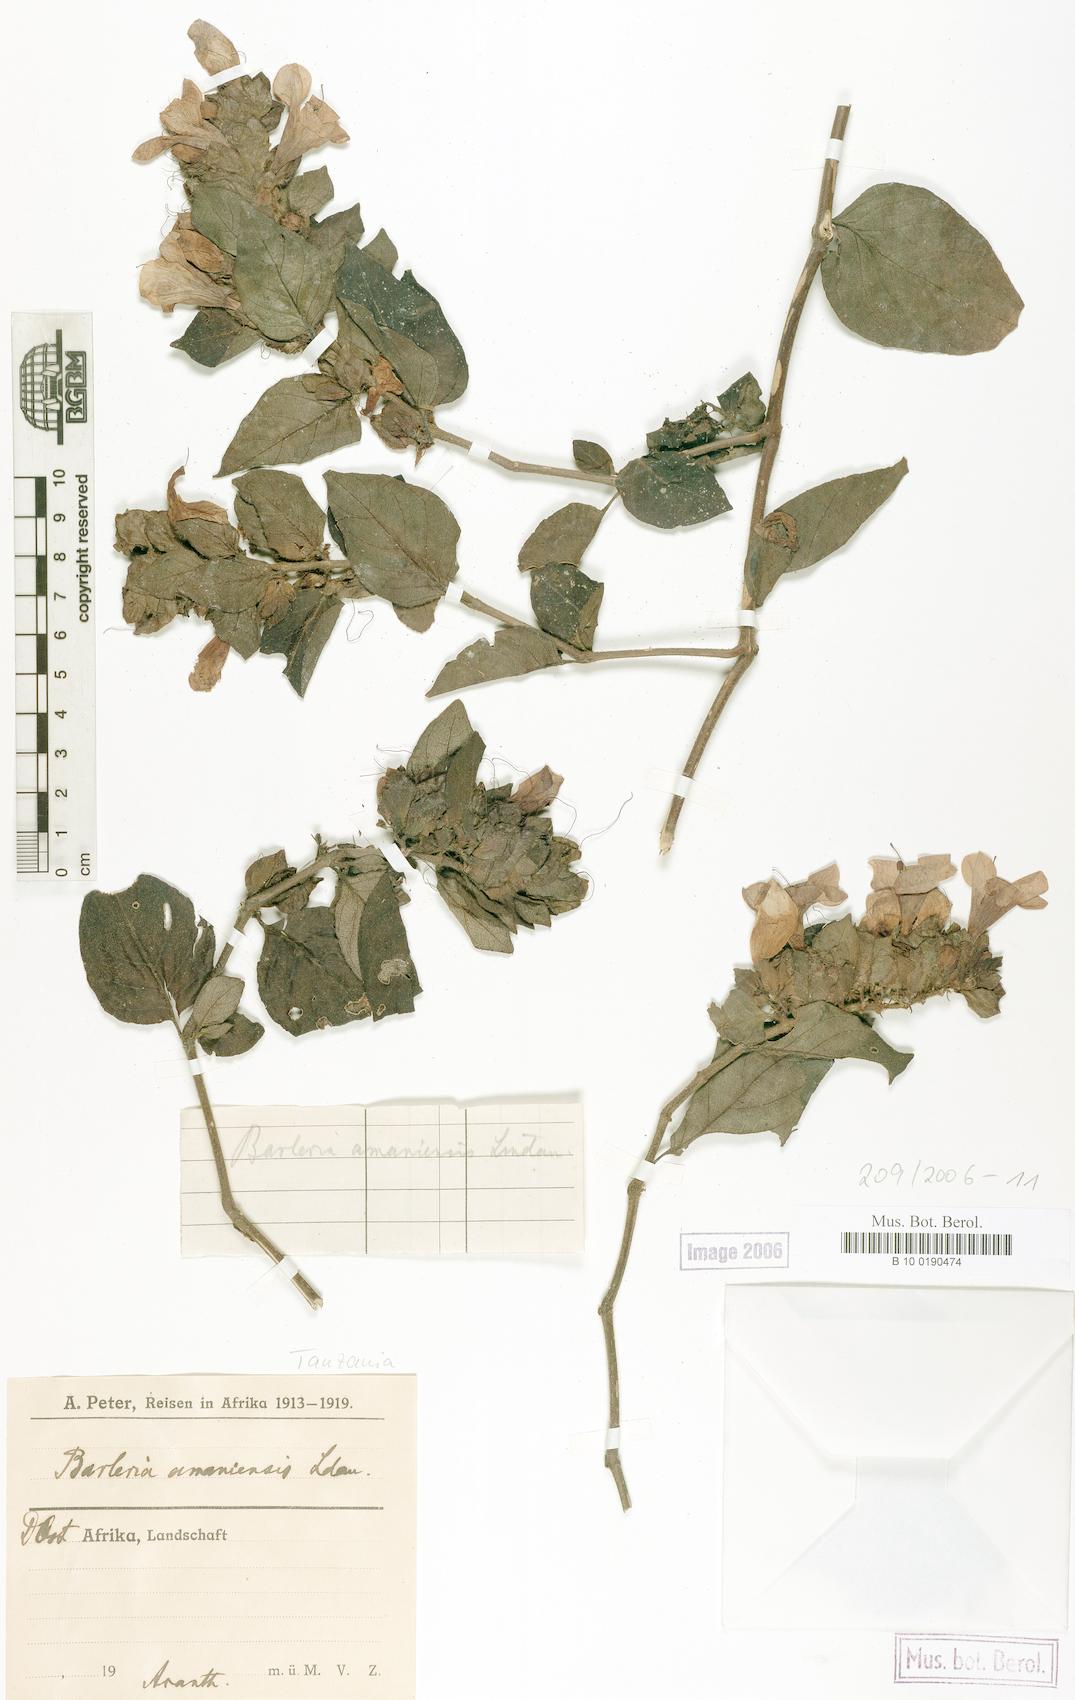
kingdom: Plantae
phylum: Tracheophyta
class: Magnoliopsida
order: Lamiales
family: Acanthaceae
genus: Barleria
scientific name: Barleria amanensis
